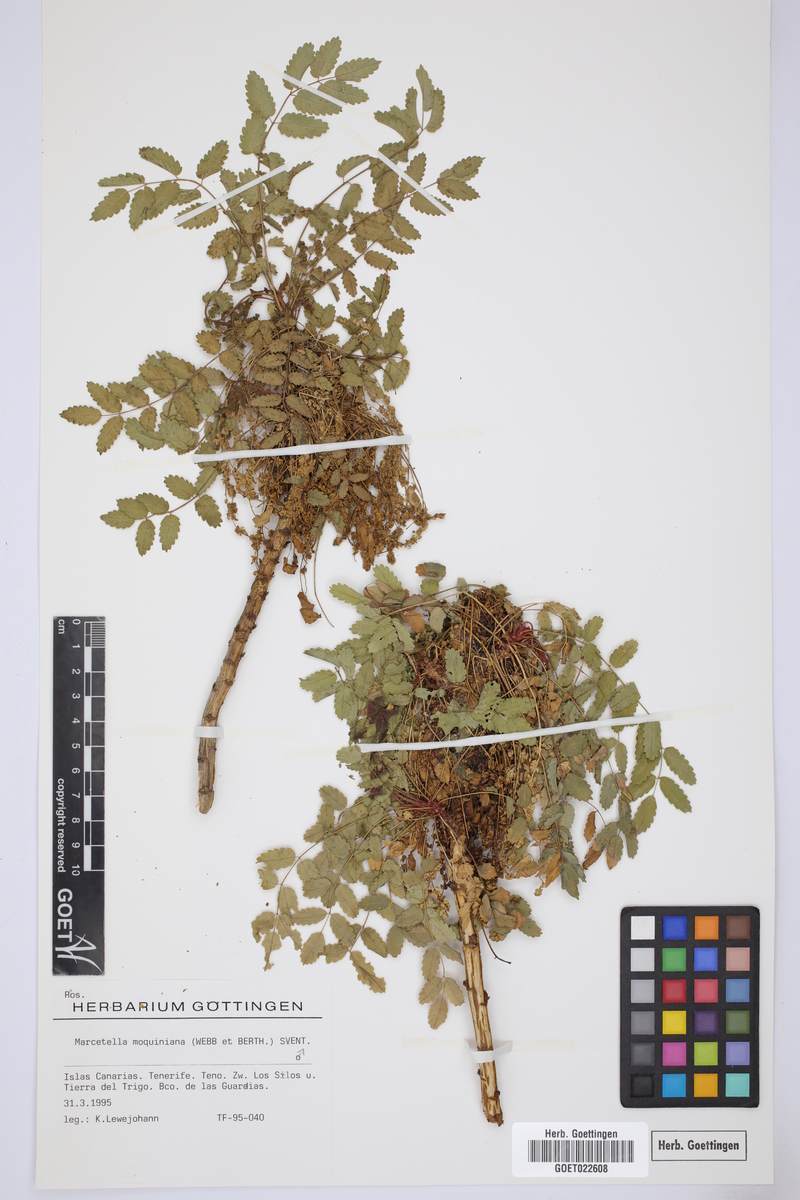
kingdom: Plantae
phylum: Tracheophyta
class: Magnoliopsida
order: Rosales
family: Rosaceae
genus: Marcetella
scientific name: Marcetella moquiniana
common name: Burnet tree
